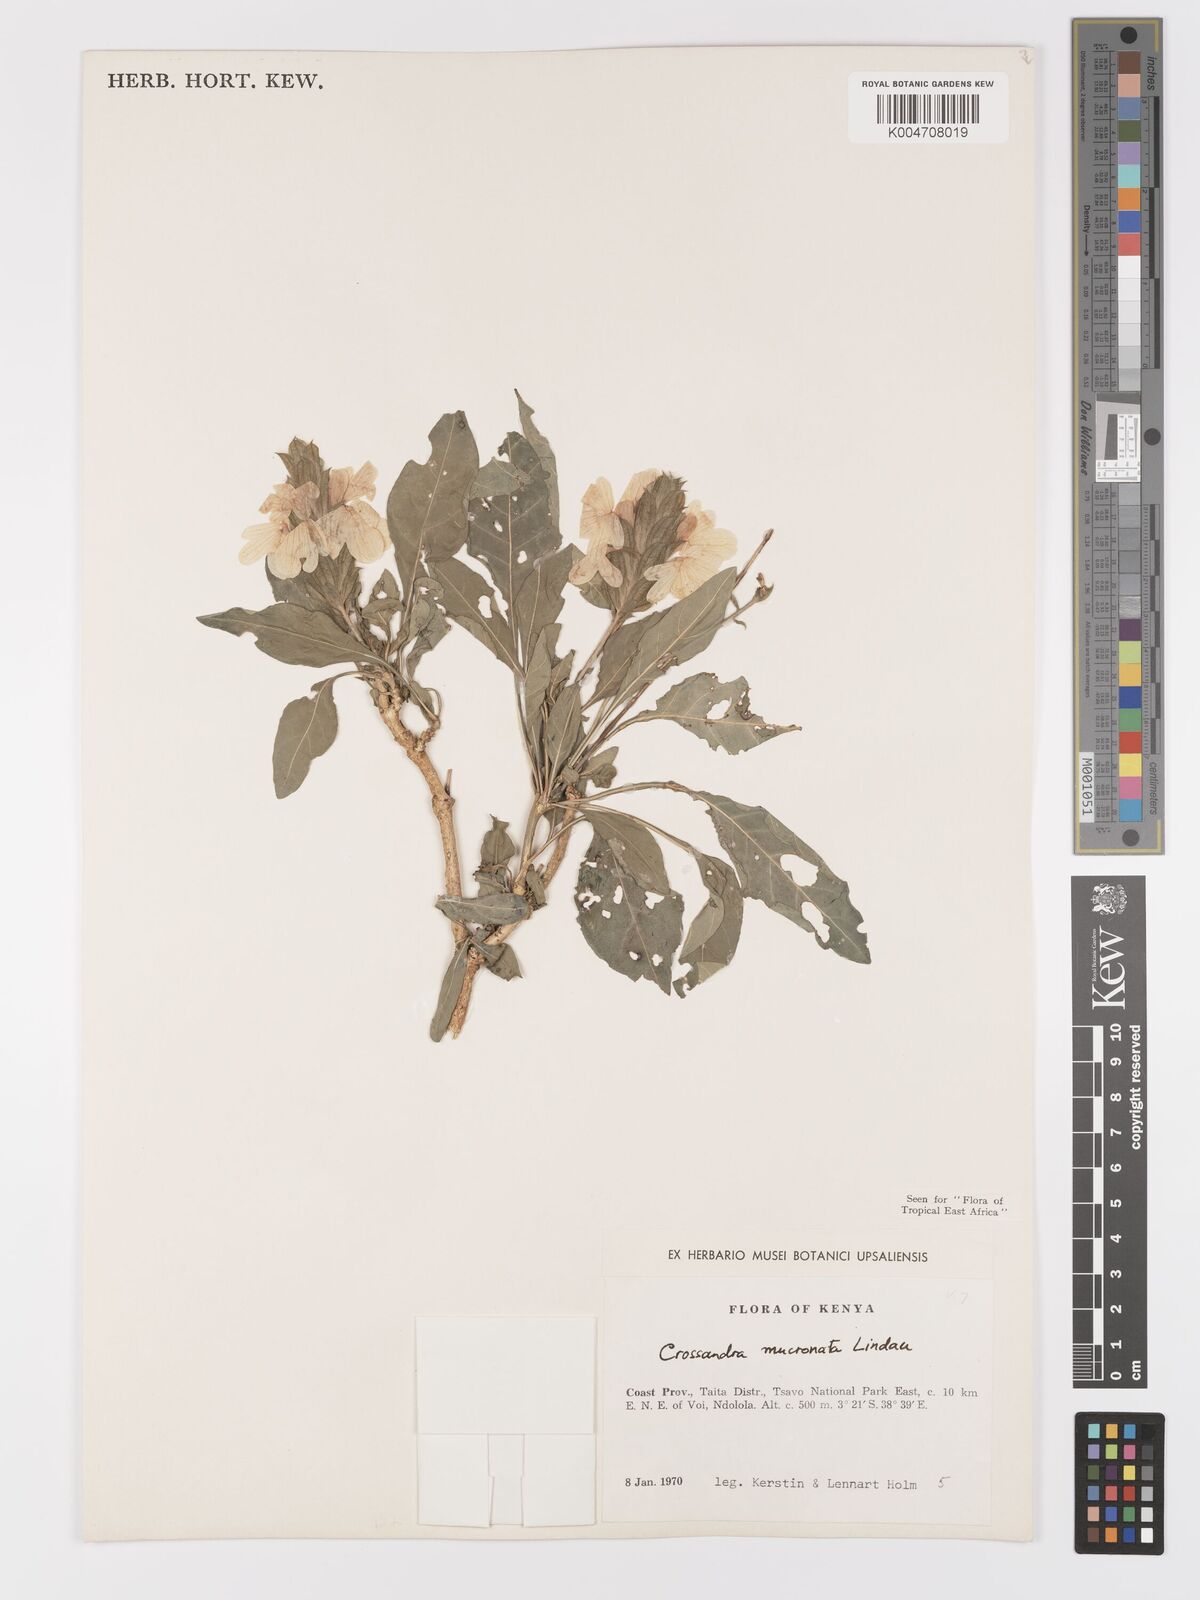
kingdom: Plantae
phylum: Tracheophyta
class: Magnoliopsida
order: Lamiales
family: Acanthaceae
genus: Crossandra
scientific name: Crossandra mucronata
